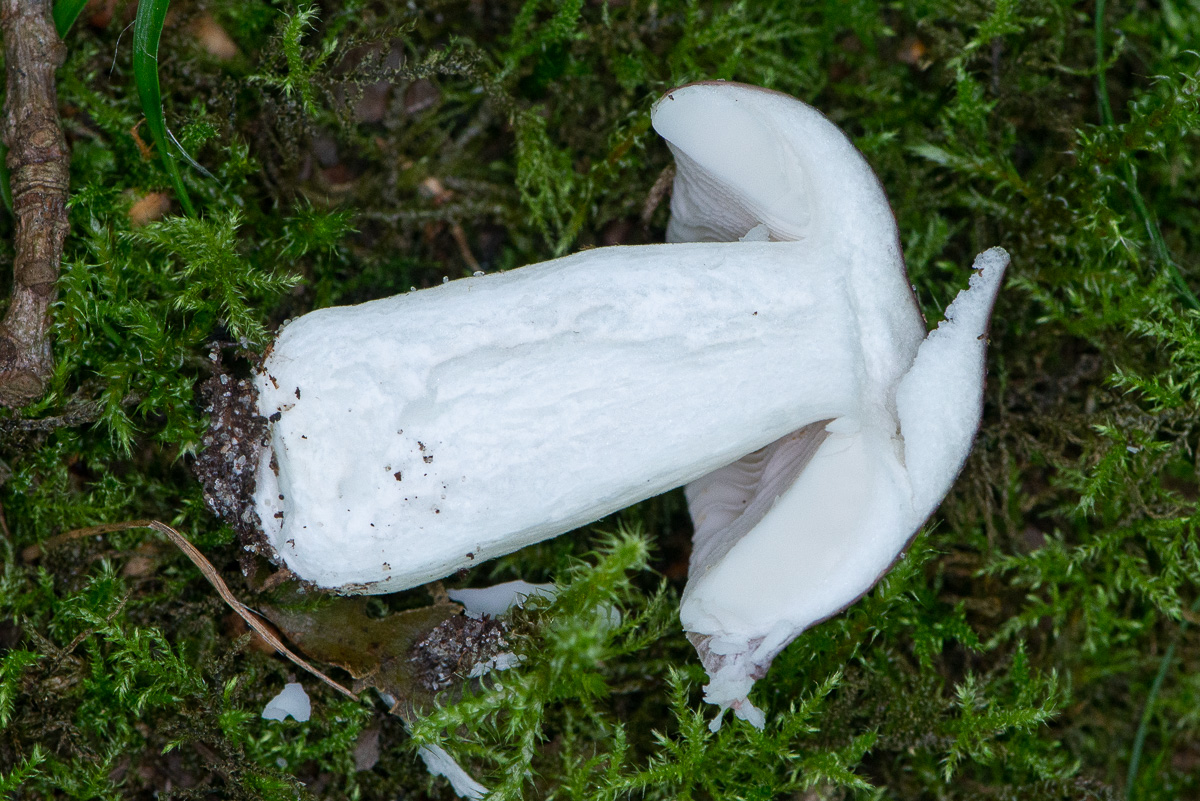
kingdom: Fungi
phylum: Basidiomycota
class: Agaricomycetes
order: Russulales
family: Russulaceae
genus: Russula
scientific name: Russula
